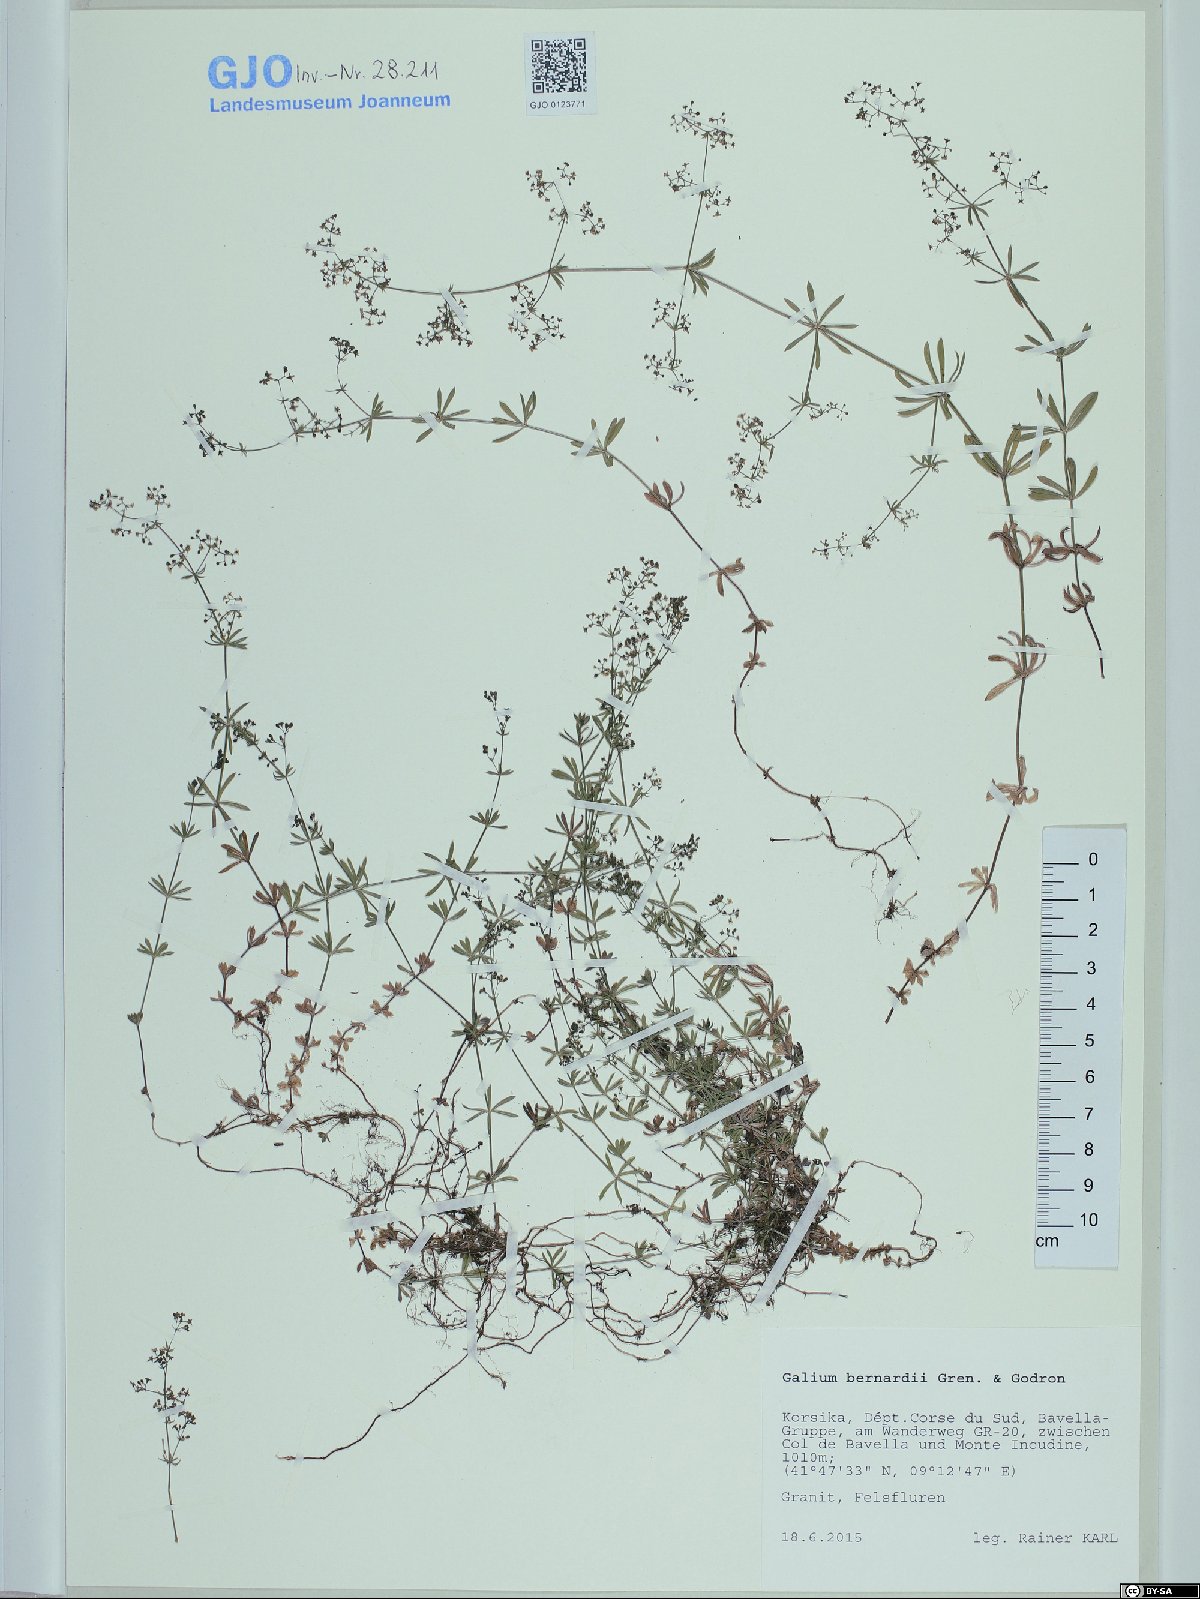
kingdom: Plantae
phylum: Tracheophyta
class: Magnoliopsida
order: Gentianales
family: Rubiaceae
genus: Galium
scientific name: Galium lucidum
